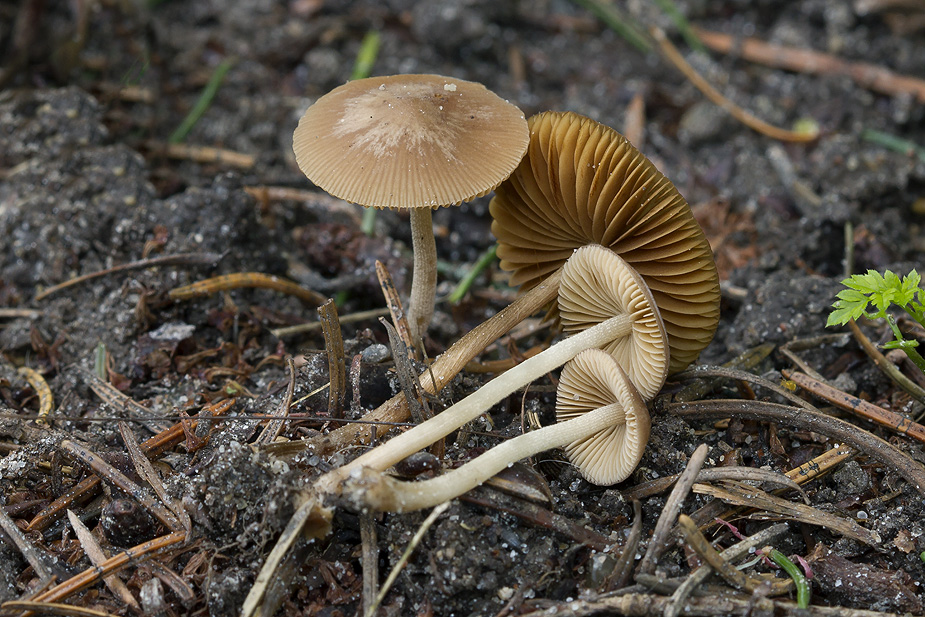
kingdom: Fungi
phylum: Basidiomycota
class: Agaricomycetes
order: Agaricales
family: Bolbitiaceae
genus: Conocybe
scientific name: Conocybe pilosella
